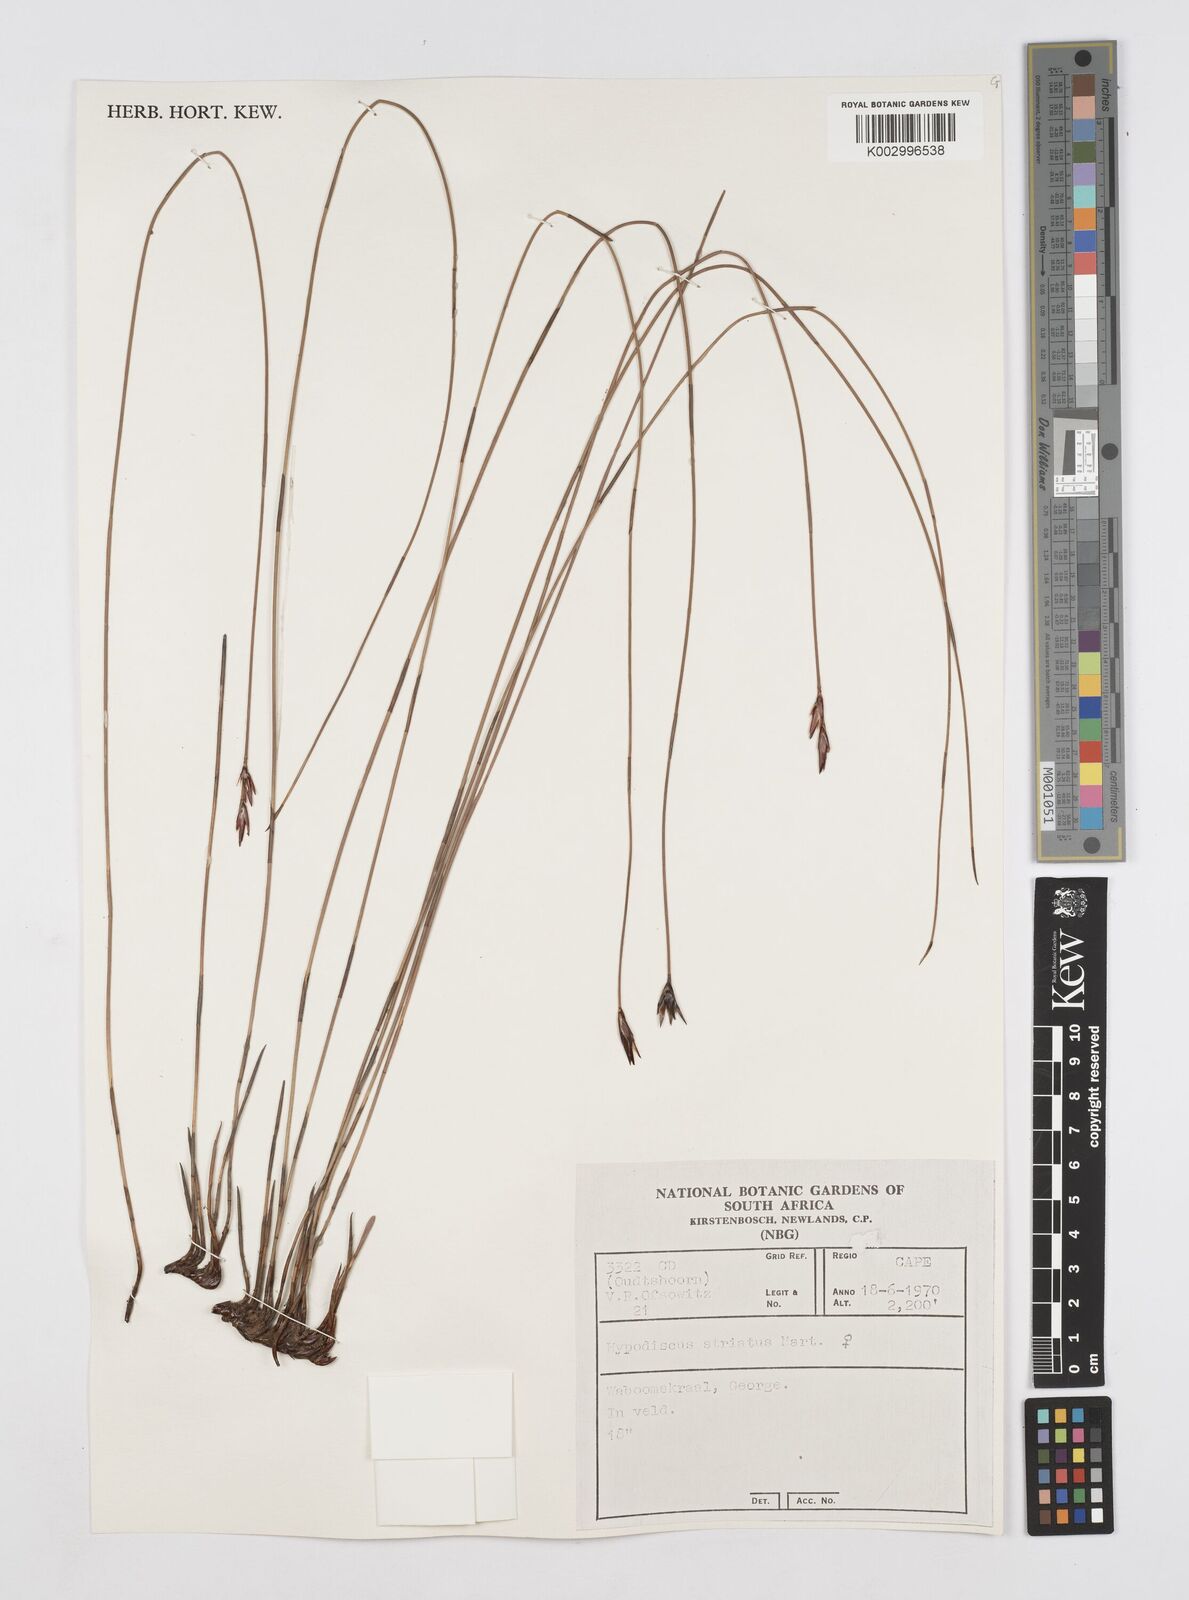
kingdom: Plantae
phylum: Tracheophyta
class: Liliopsida
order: Poales
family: Restionaceae
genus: Hypodiscus
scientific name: Hypodiscus striatus
